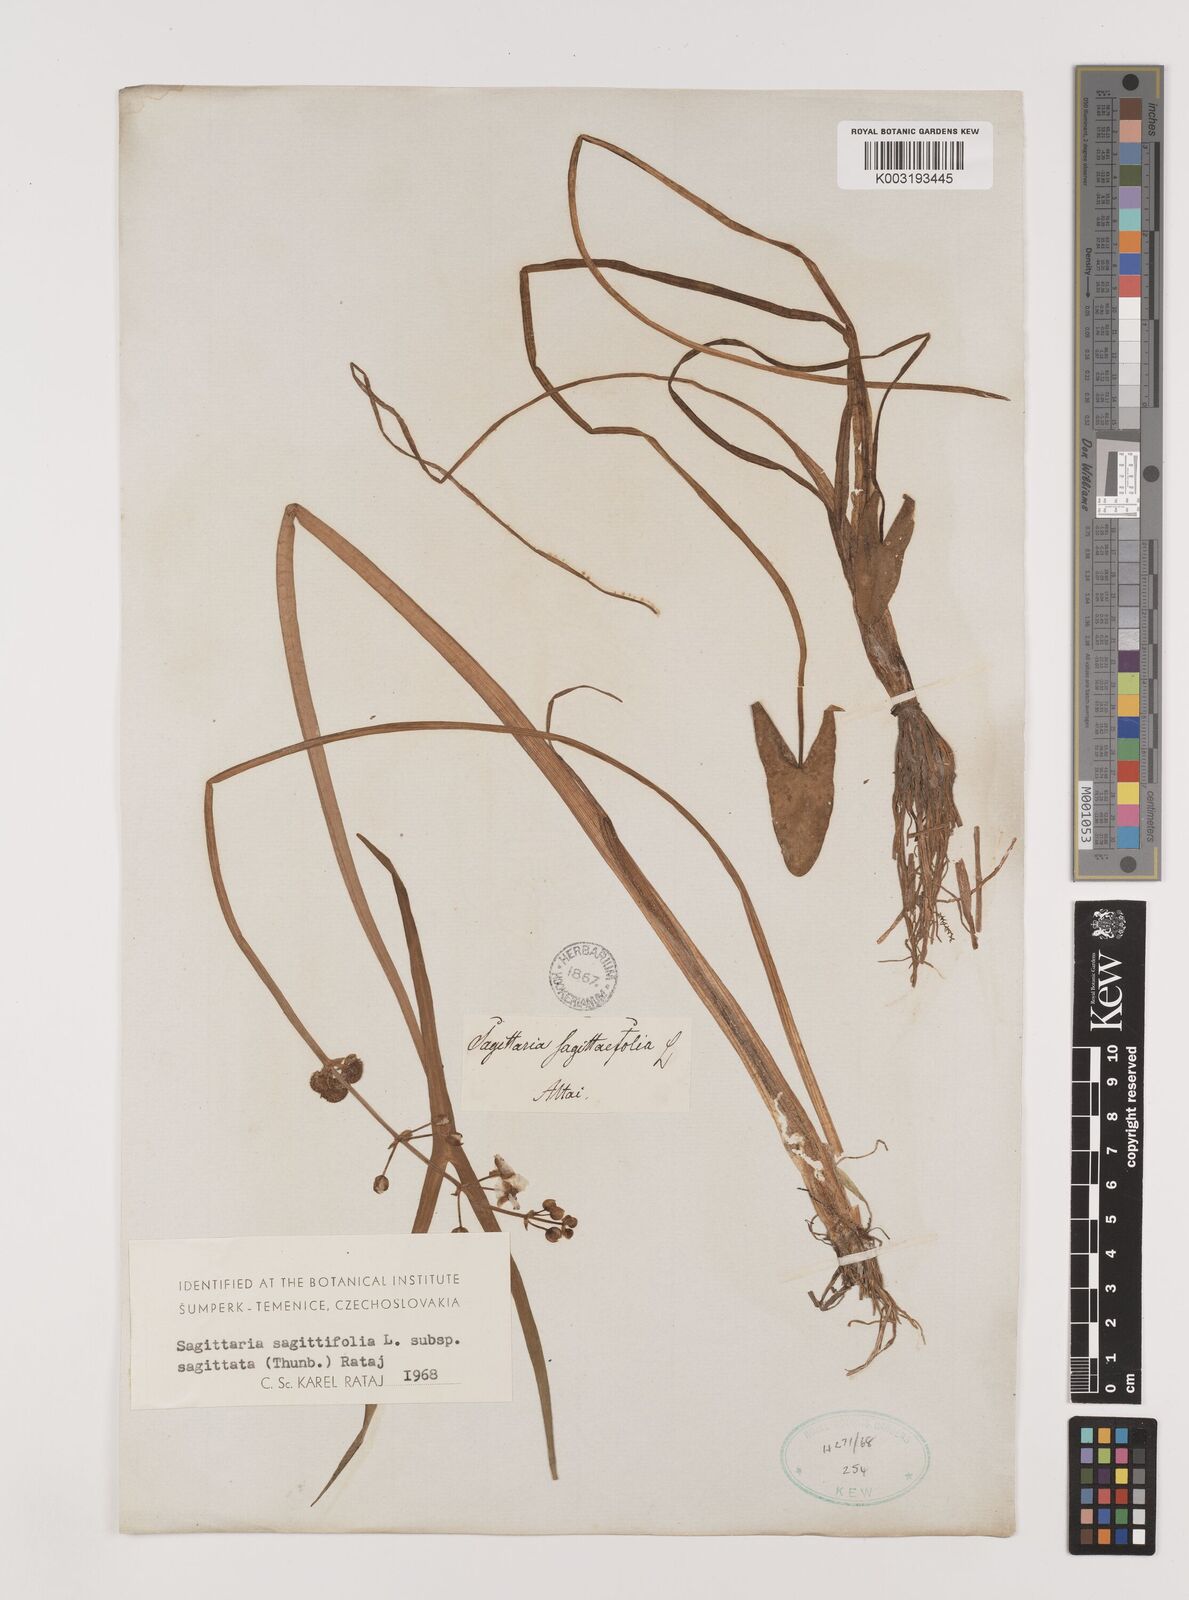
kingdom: Plantae
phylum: Tracheophyta
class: Liliopsida
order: Alismatales
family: Alismataceae
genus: Sagittaria
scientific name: Sagittaria trifolia
